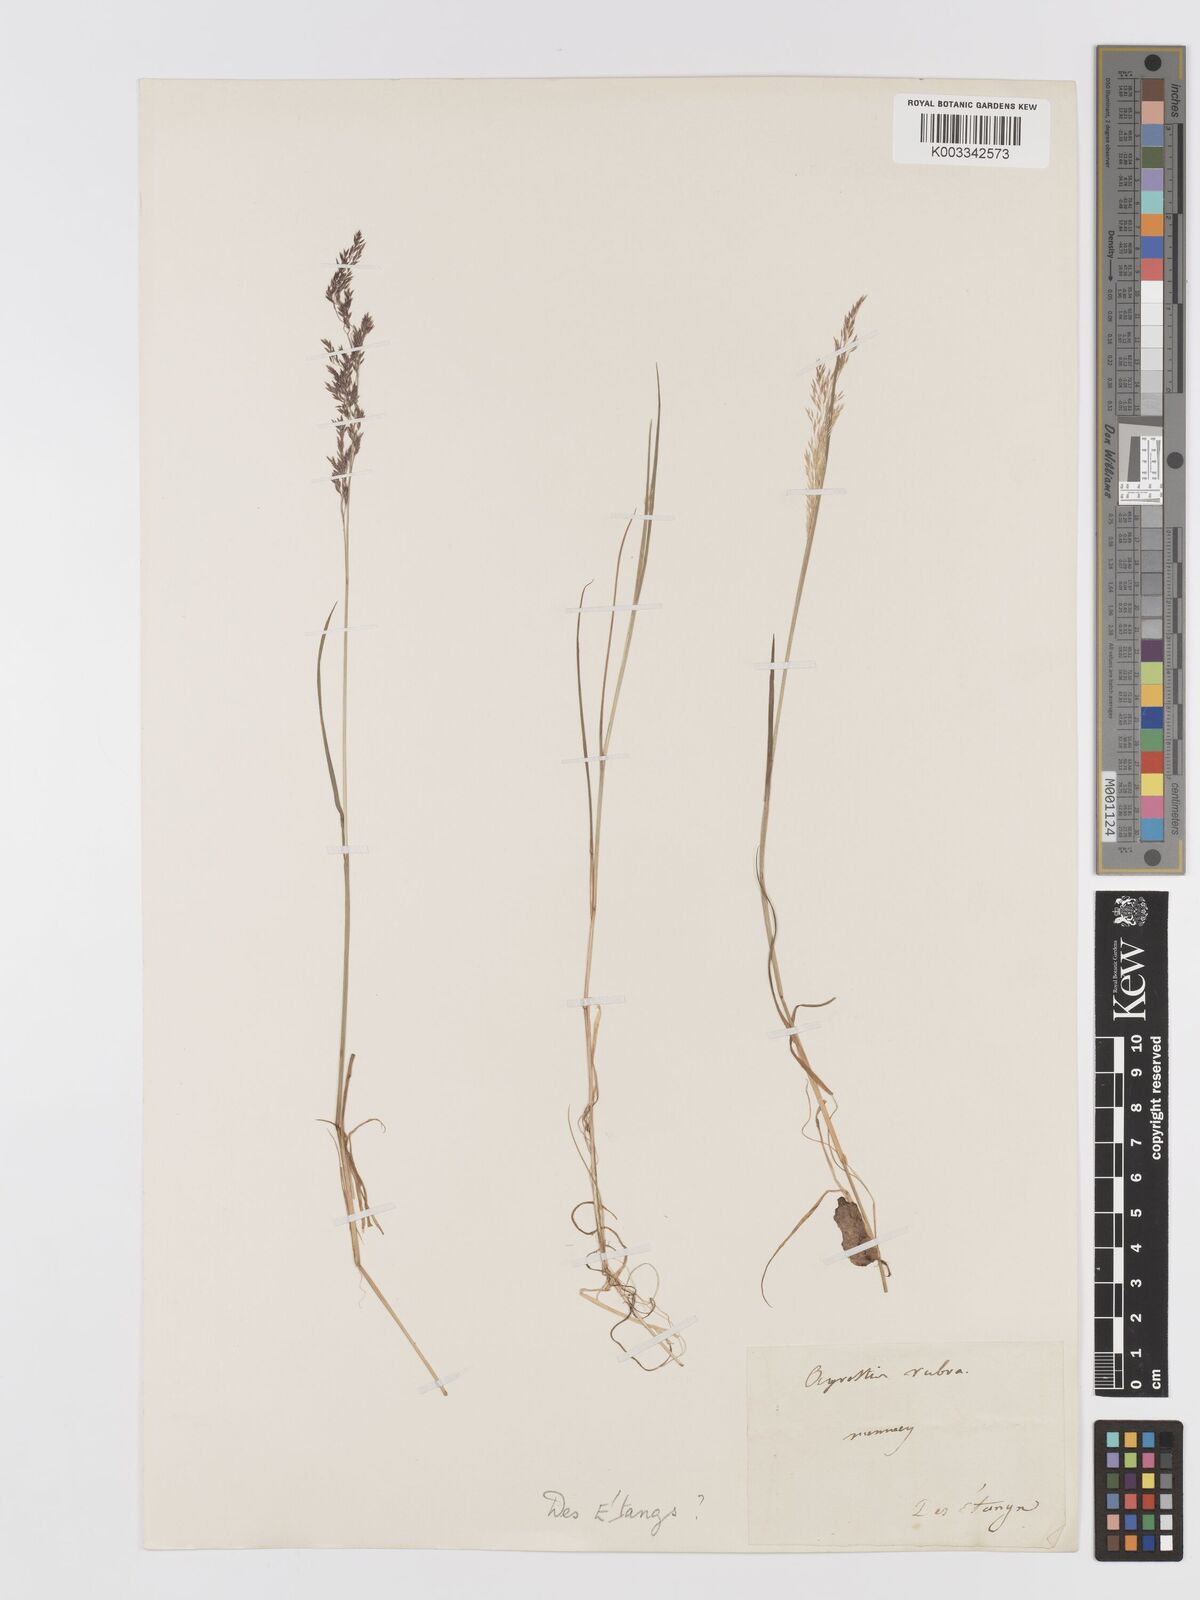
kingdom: Plantae
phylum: Tracheophyta
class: Liliopsida
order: Poales
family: Poaceae
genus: Agrostis
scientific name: Agrostis
